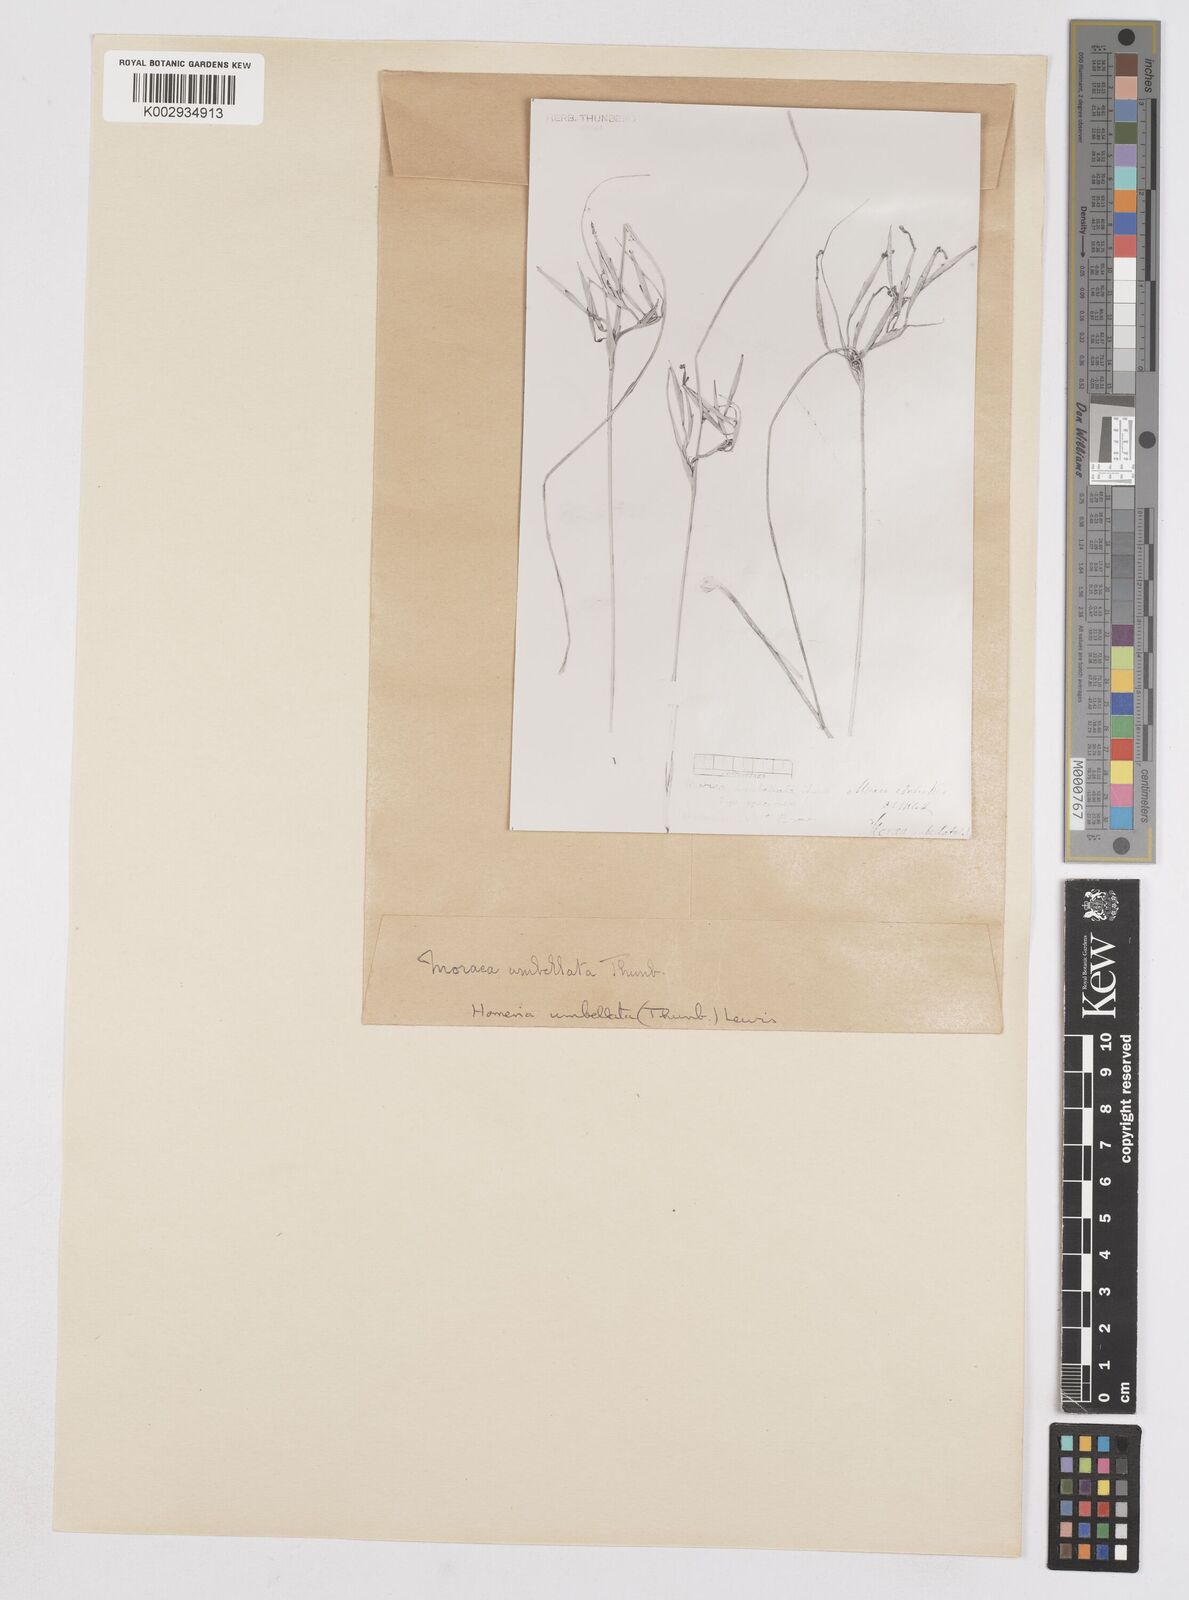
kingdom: Plantae
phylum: Tracheophyta
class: Liliopsida
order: Asparagales
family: Iridaceae
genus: Moraea
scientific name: Moraea umbellata
